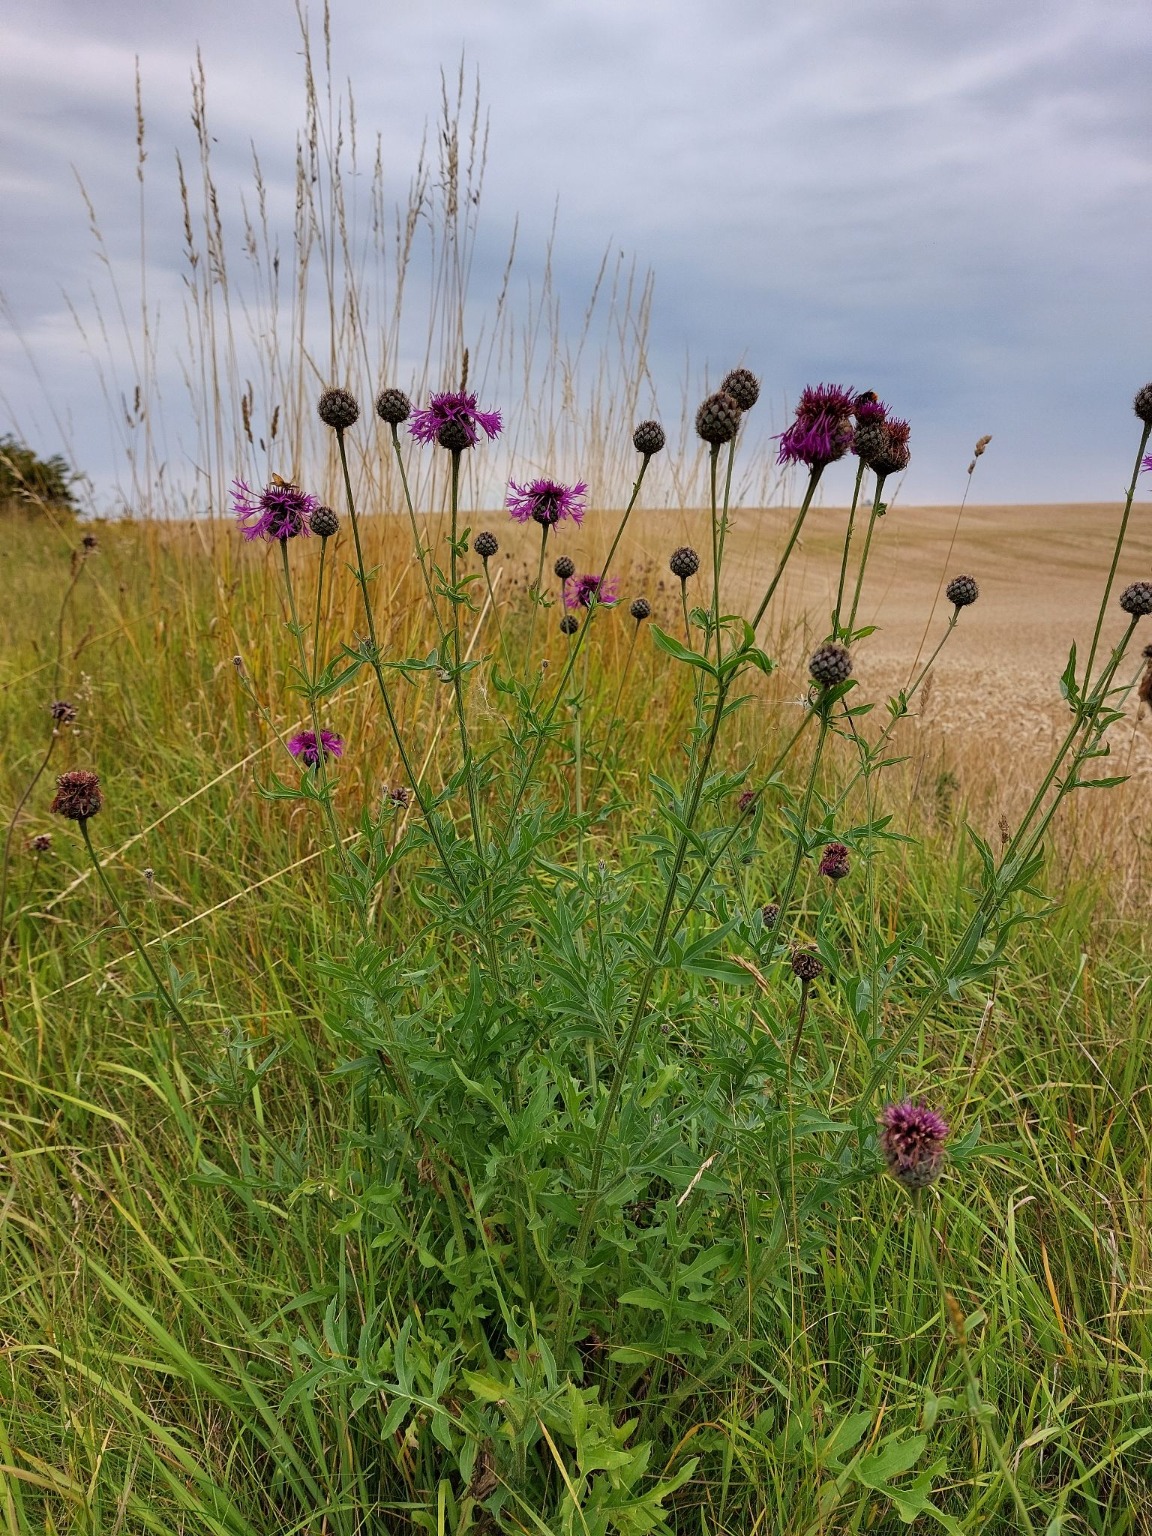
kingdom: Plantae
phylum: Tracheophyta
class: Magnoliopsida
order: Asterales
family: Asteraceae
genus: Centaurea
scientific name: Centaurea scabiosa
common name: Stor knopurt
